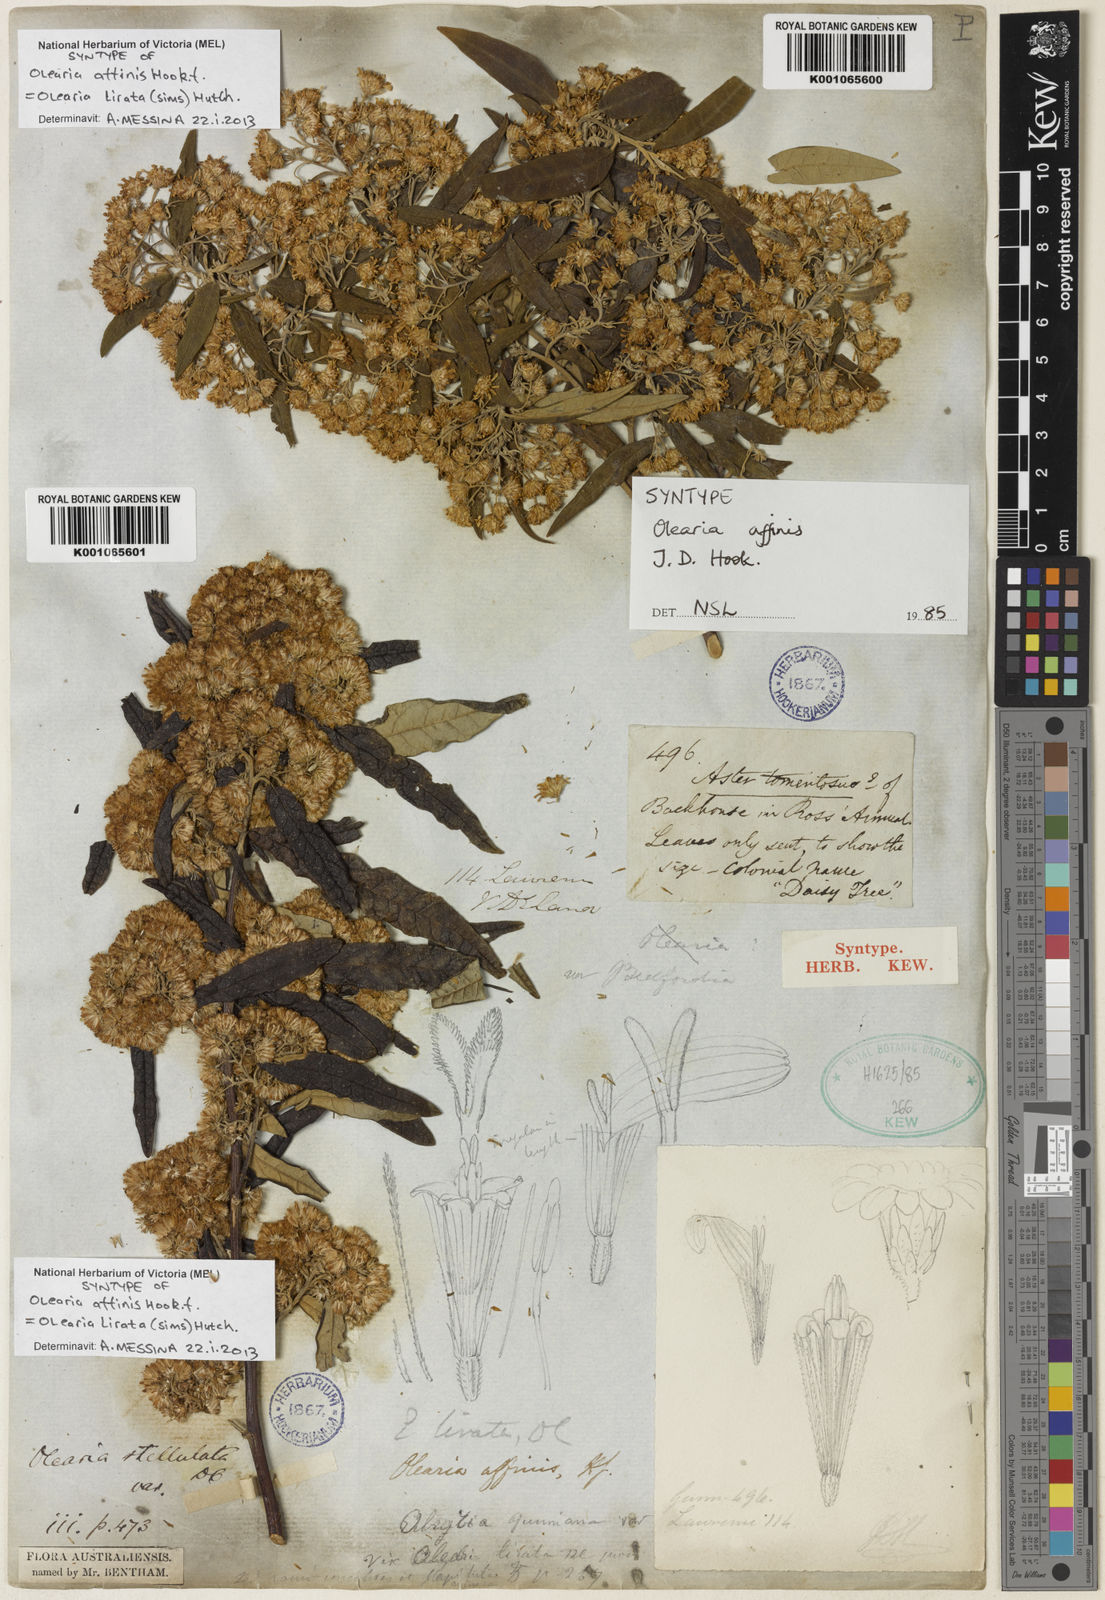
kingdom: Plantae
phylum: Tracheophyta
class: Magnoliopsida
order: Asterales
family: Asteraceae
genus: Olearia
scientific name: Olearia stellulata
